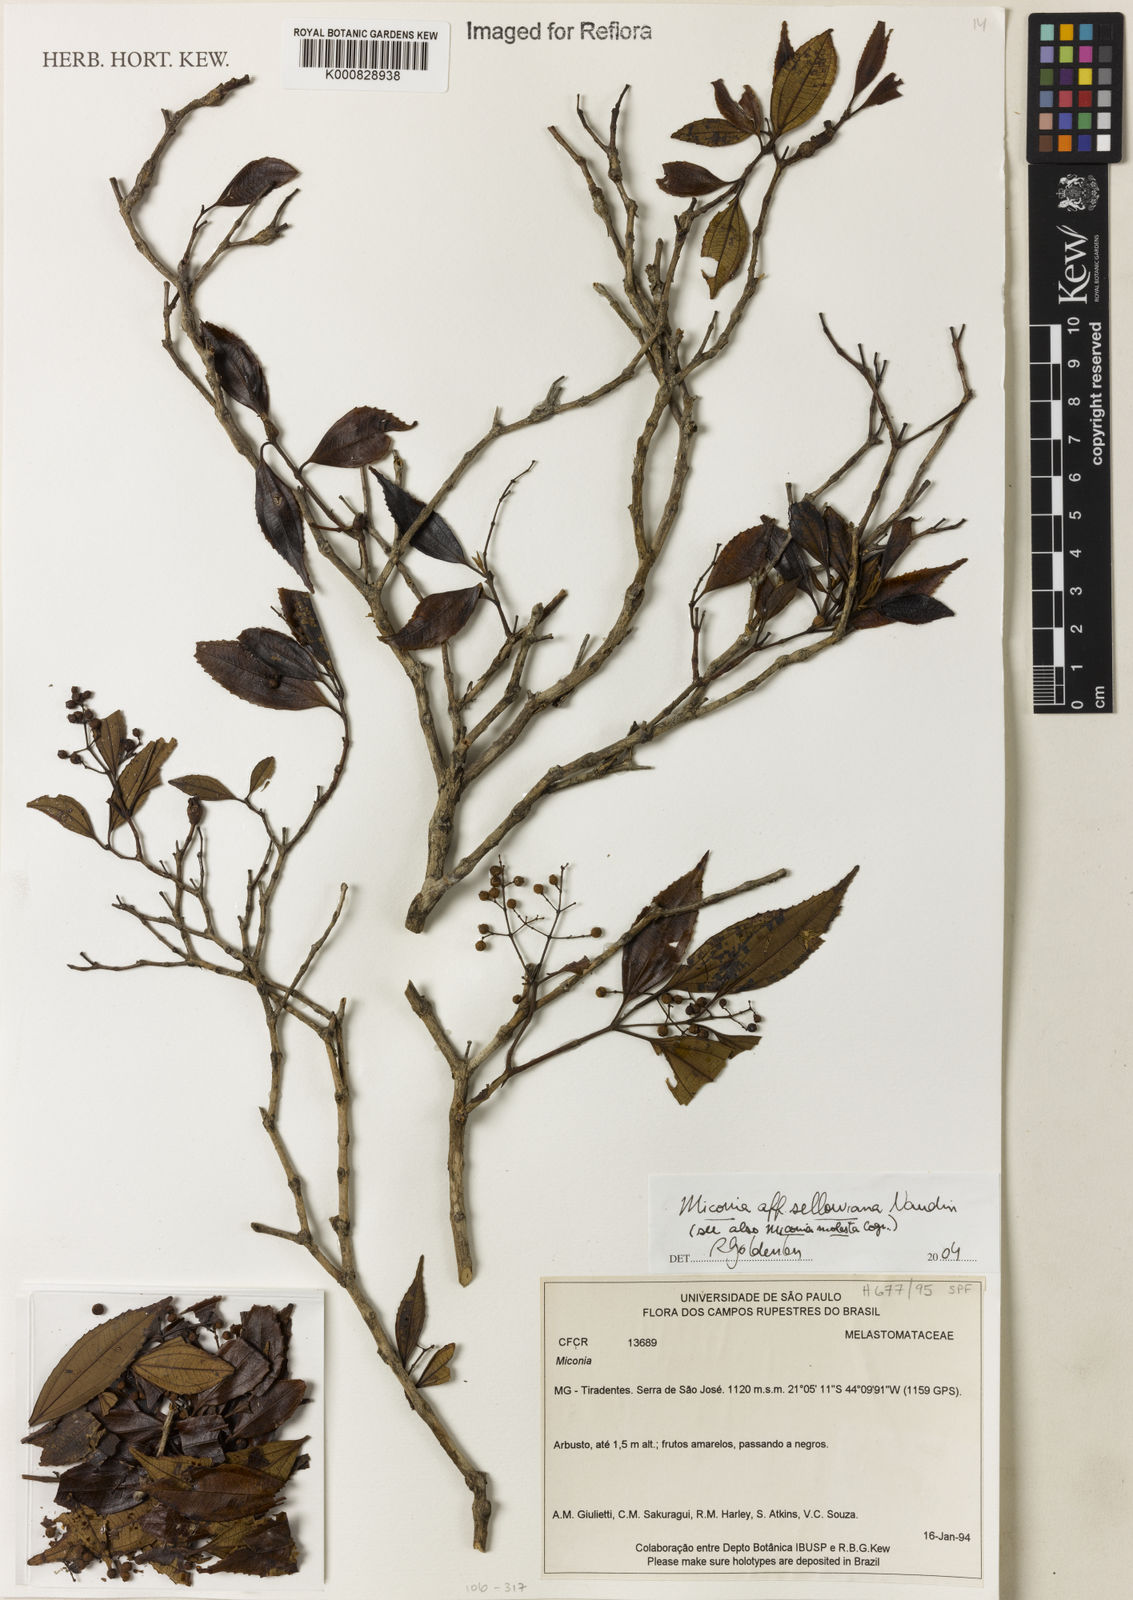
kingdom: Plantae
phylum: Tracheophyta
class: Magnoliopsida
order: Myrtales
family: Melastomataceae
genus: Miconia
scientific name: Miconia sellowiana
